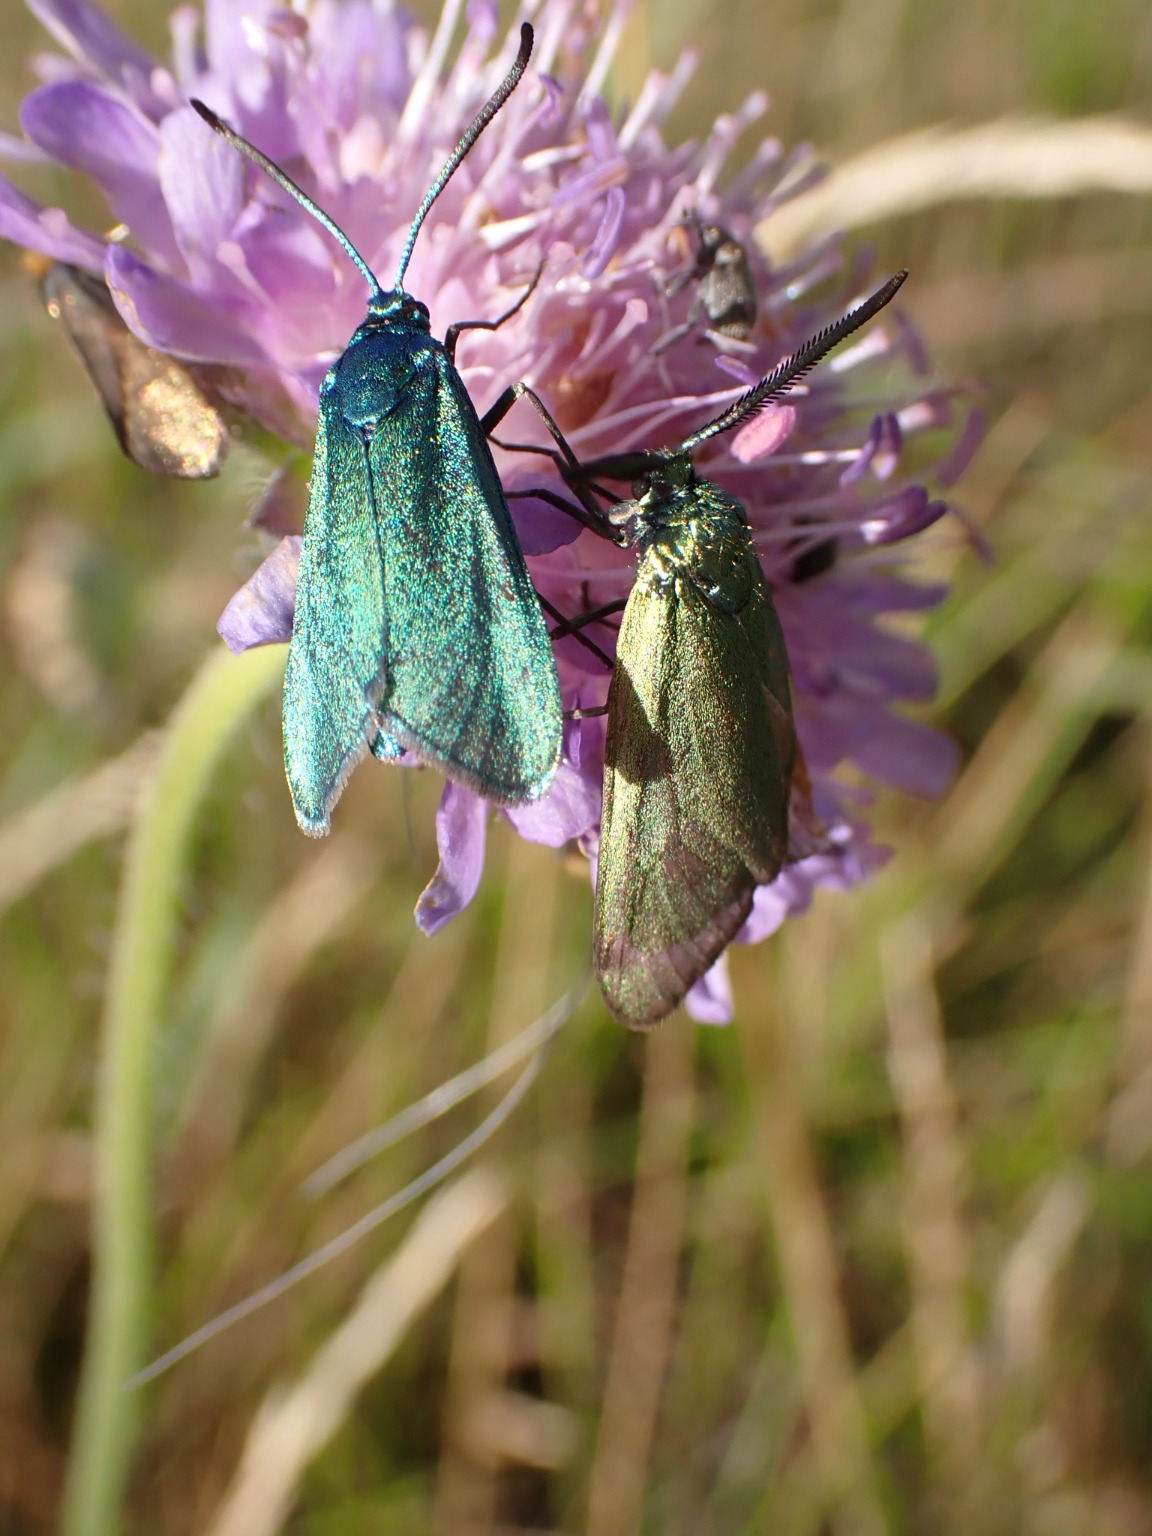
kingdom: Animalia
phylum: Arthropoda
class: Insecta
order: Lepidoptera
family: Zygaenidae
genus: Adscita
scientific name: Adscita statices
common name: Metalvinge
